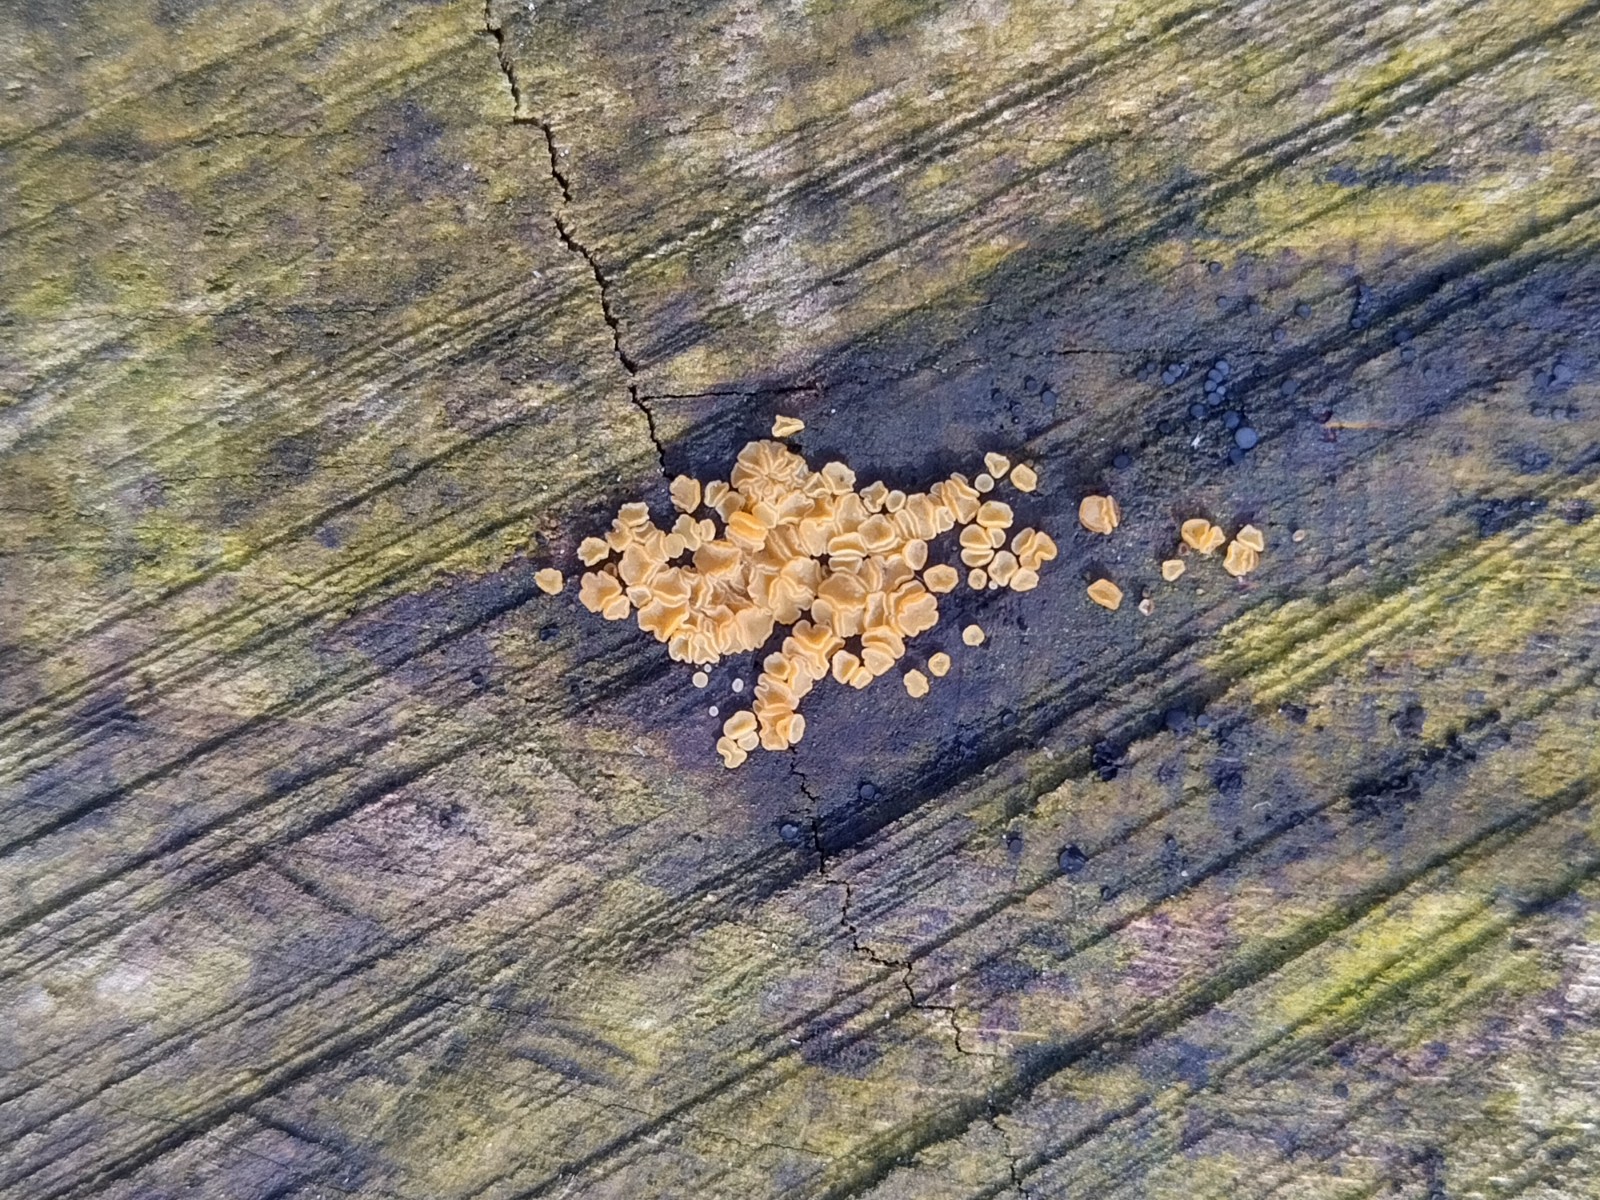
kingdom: Fungi
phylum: Ascomycota
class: Leotiomycetes
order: Helotiales
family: Helotiaceae
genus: Bisporella
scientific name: Bisporella subpallida
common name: lys snitskive
